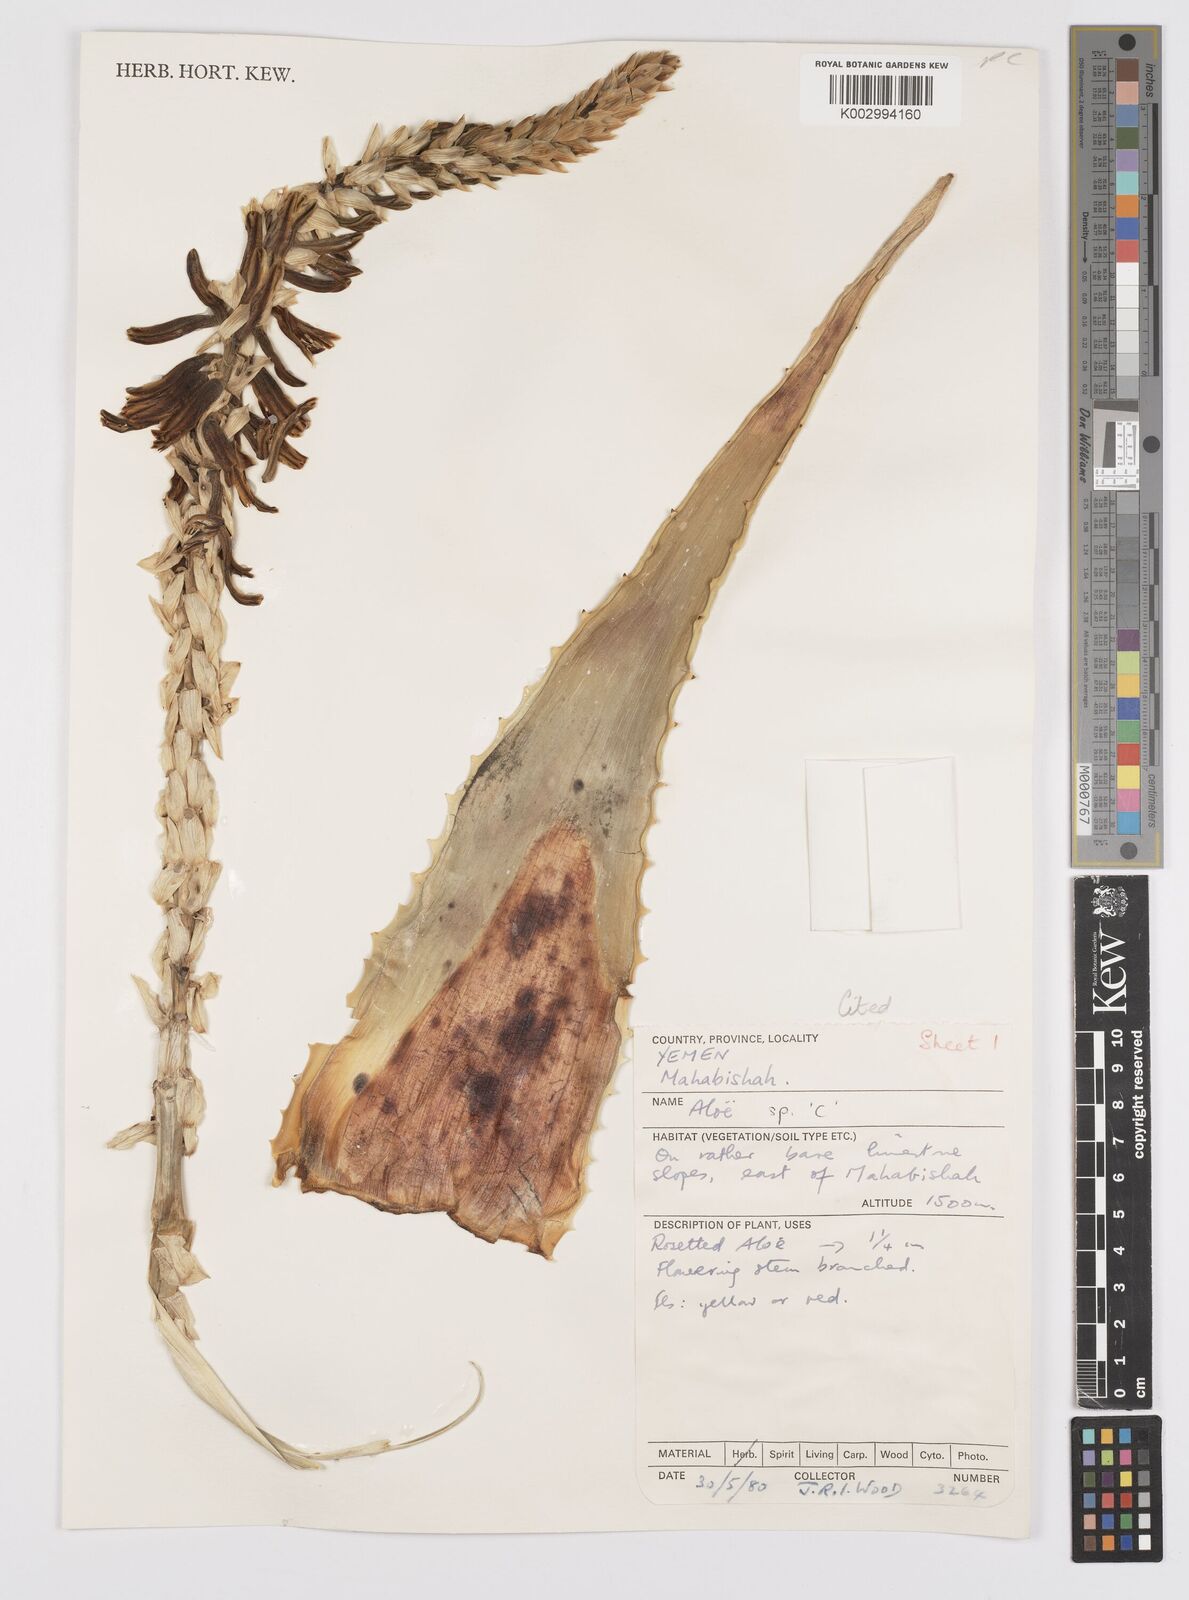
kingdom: Plantae
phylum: Tracheophyta
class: Liliopsida
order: Asparagales
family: Asphodelaceae
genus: Aloe
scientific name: Aloe
